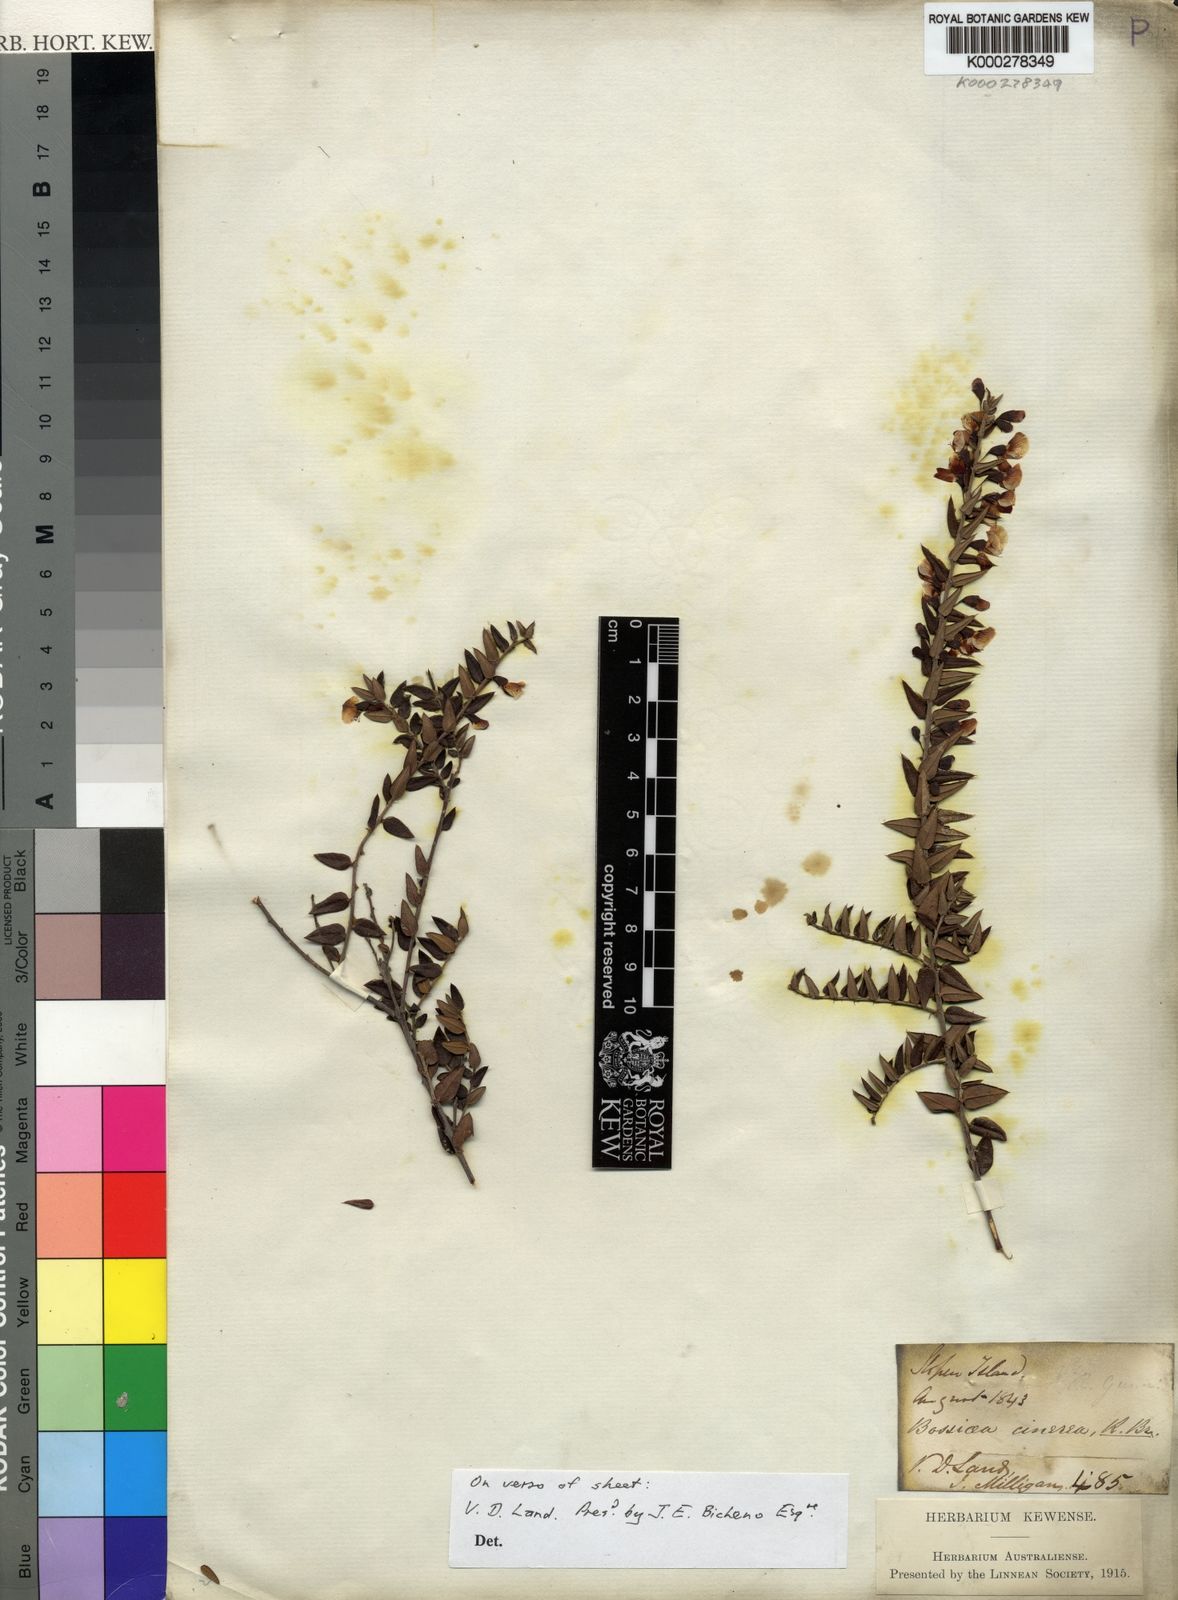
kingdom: Plantae
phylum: Tracheophyta
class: Magnoliopsida
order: Fabales
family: Fabaceae
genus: Bossiaea
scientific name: Bossiaea cinerea
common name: Showy bossiaea
